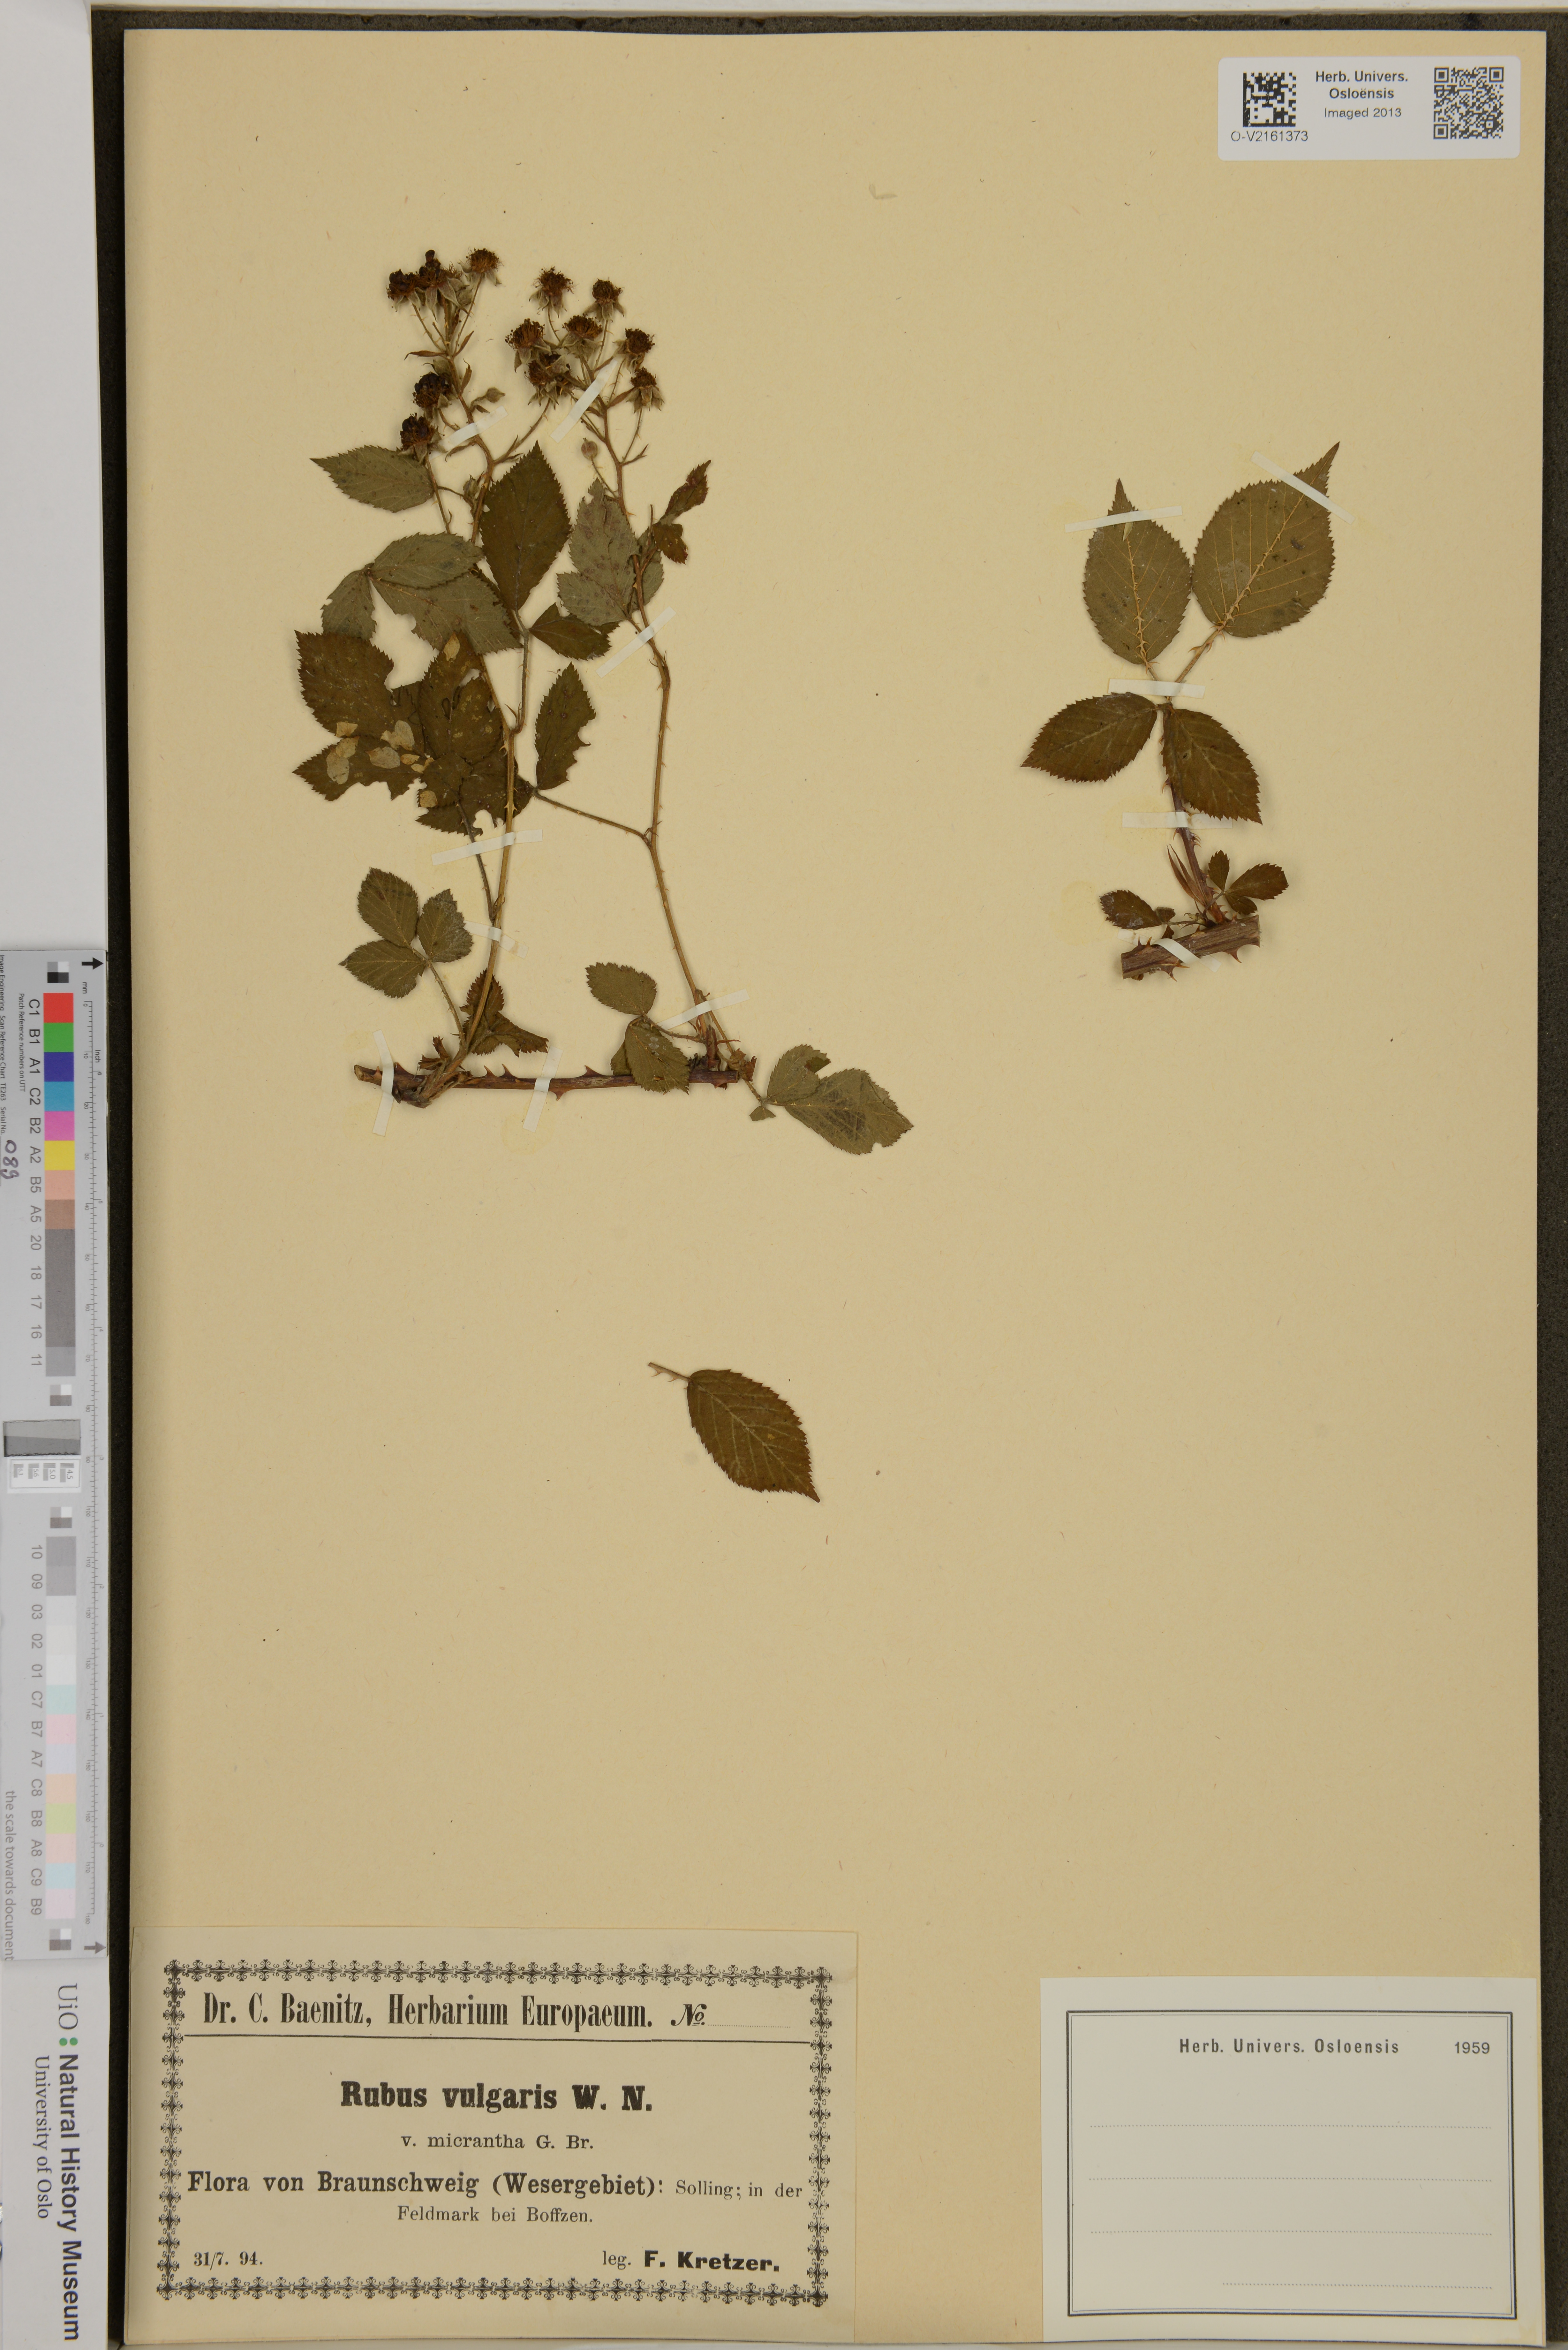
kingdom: Plantae
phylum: Tracheophyta
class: Magnoliopsida
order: Rosales
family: Rosaceae
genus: Rubus
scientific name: Rubus aschoffii
